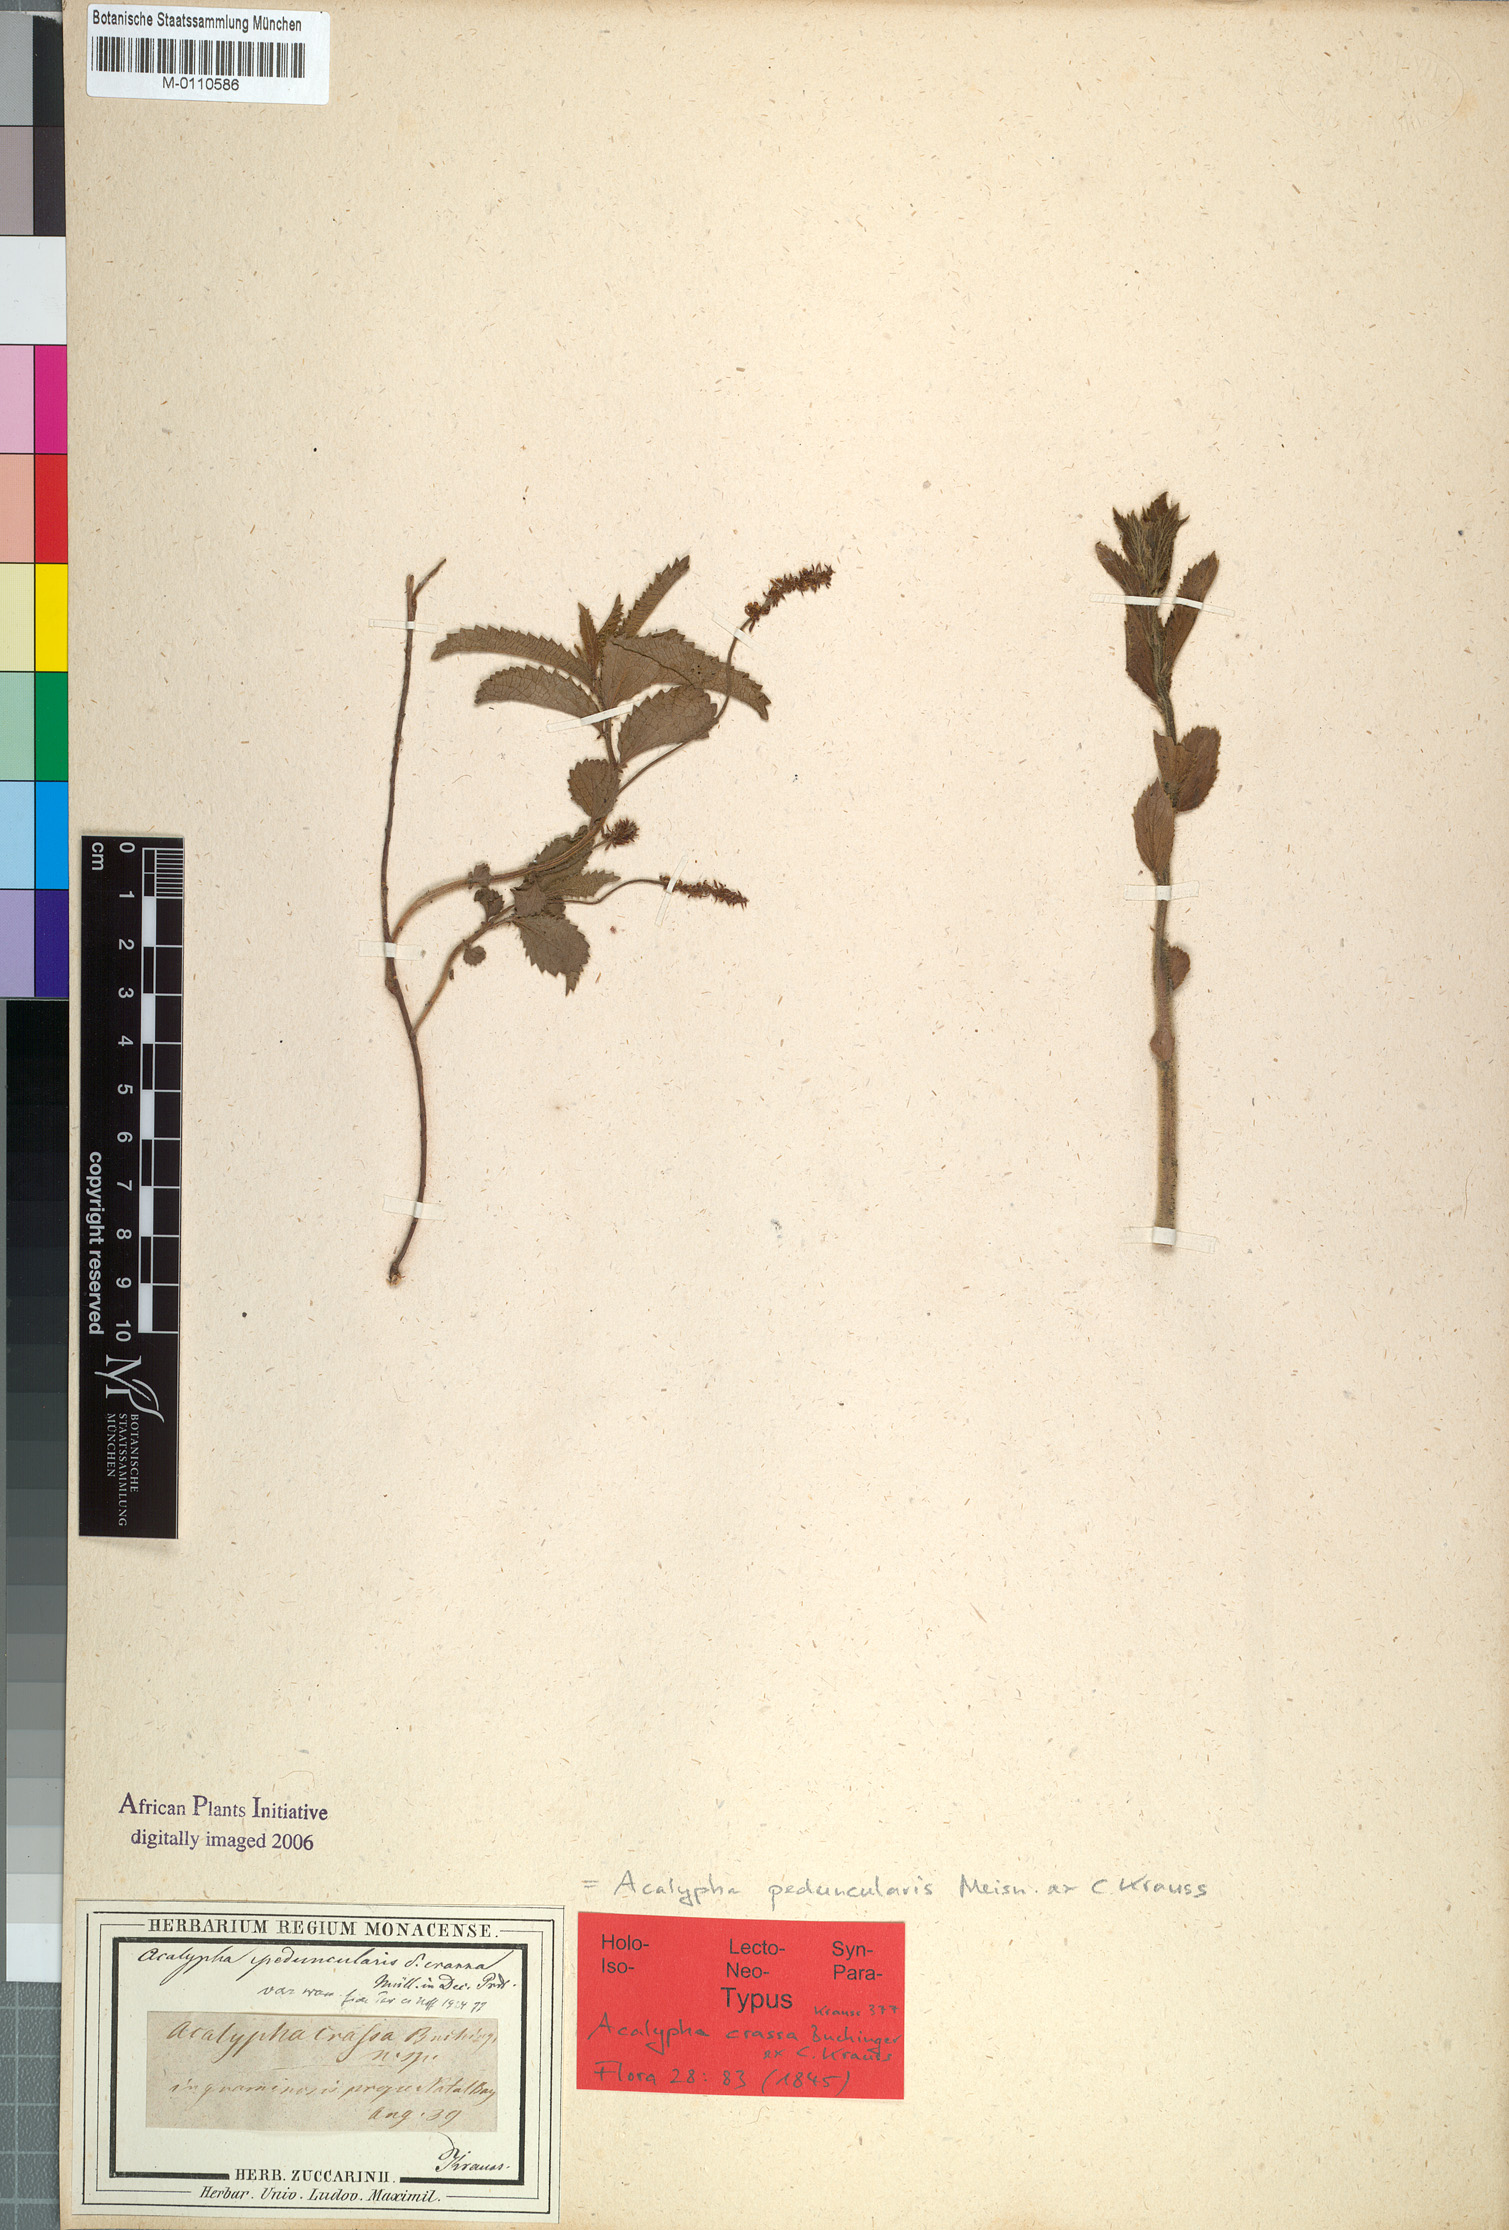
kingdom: Plantae
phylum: Tracheophyta
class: Magnoliopsida
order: Malpighiales
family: Euphorbiaceae
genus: Acalypha
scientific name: Acalypha peduncularis
